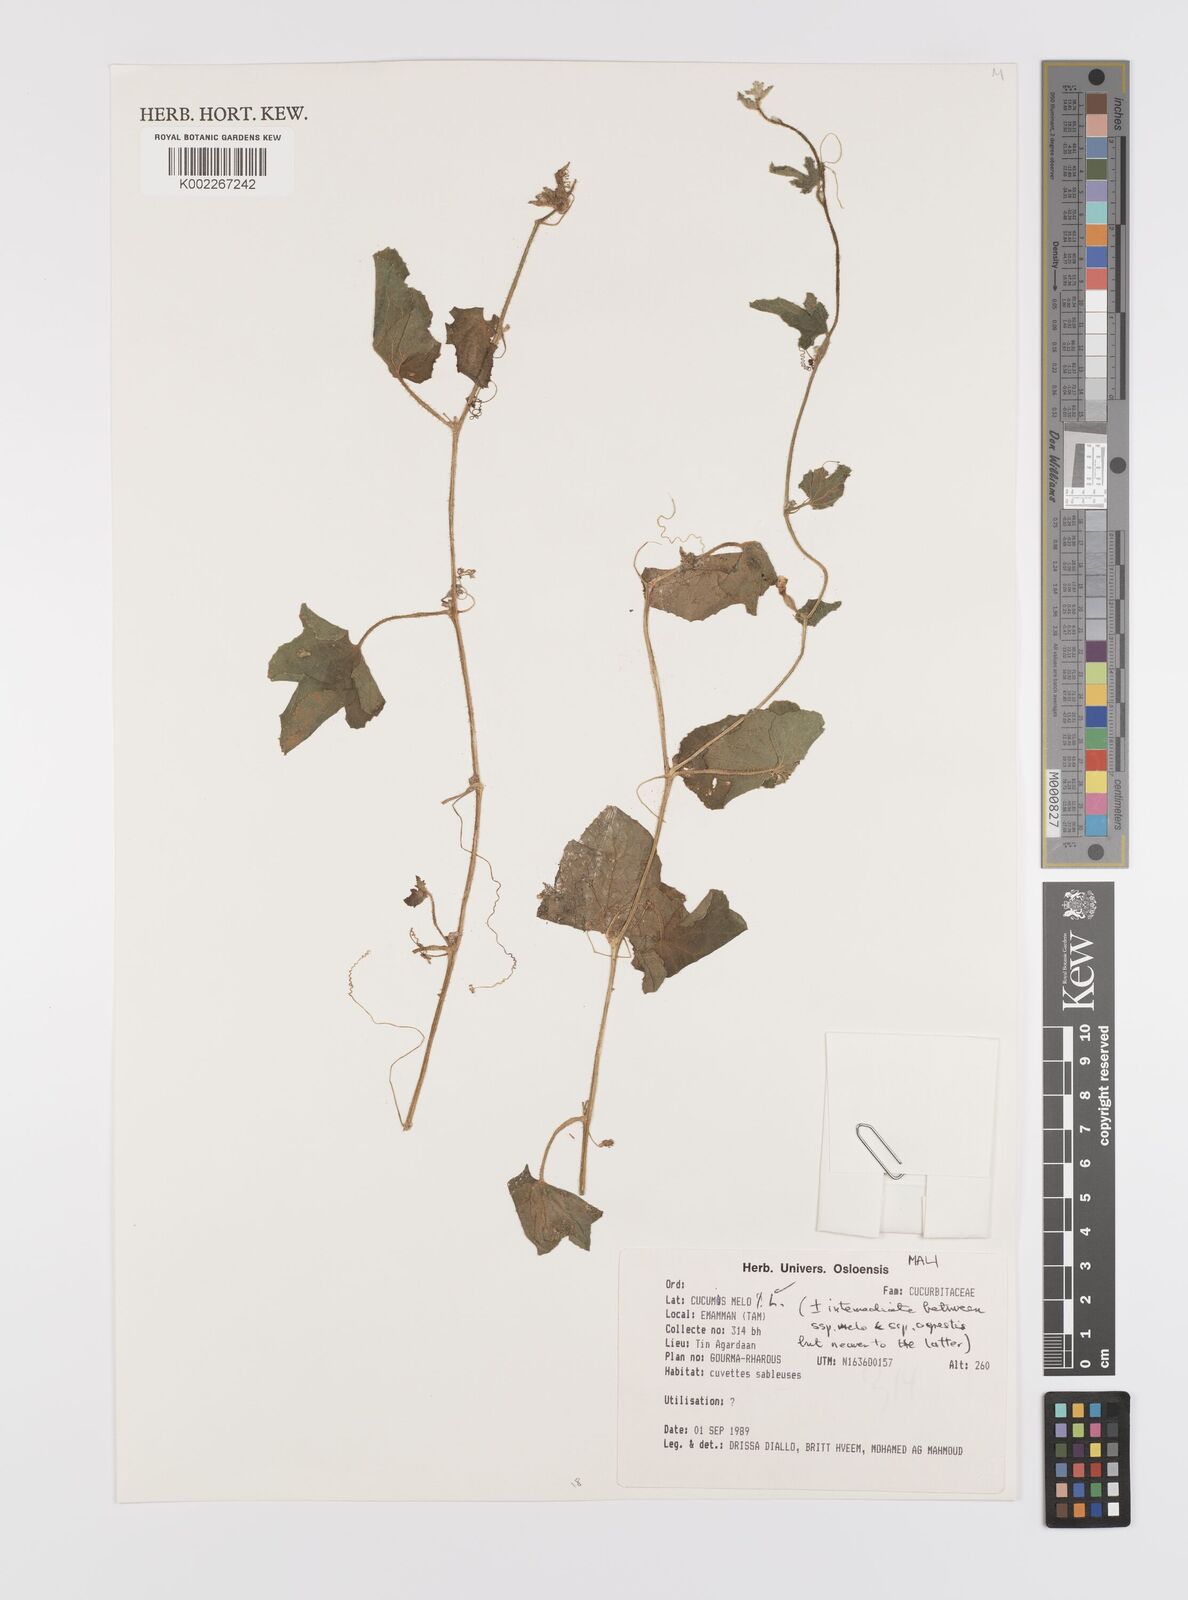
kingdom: Plantae
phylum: Tracheophyta
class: Magnoliopsida
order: Cucurbitales
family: Cucurbitaceae
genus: Cucumis
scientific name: Cucumis melo
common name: Melon
